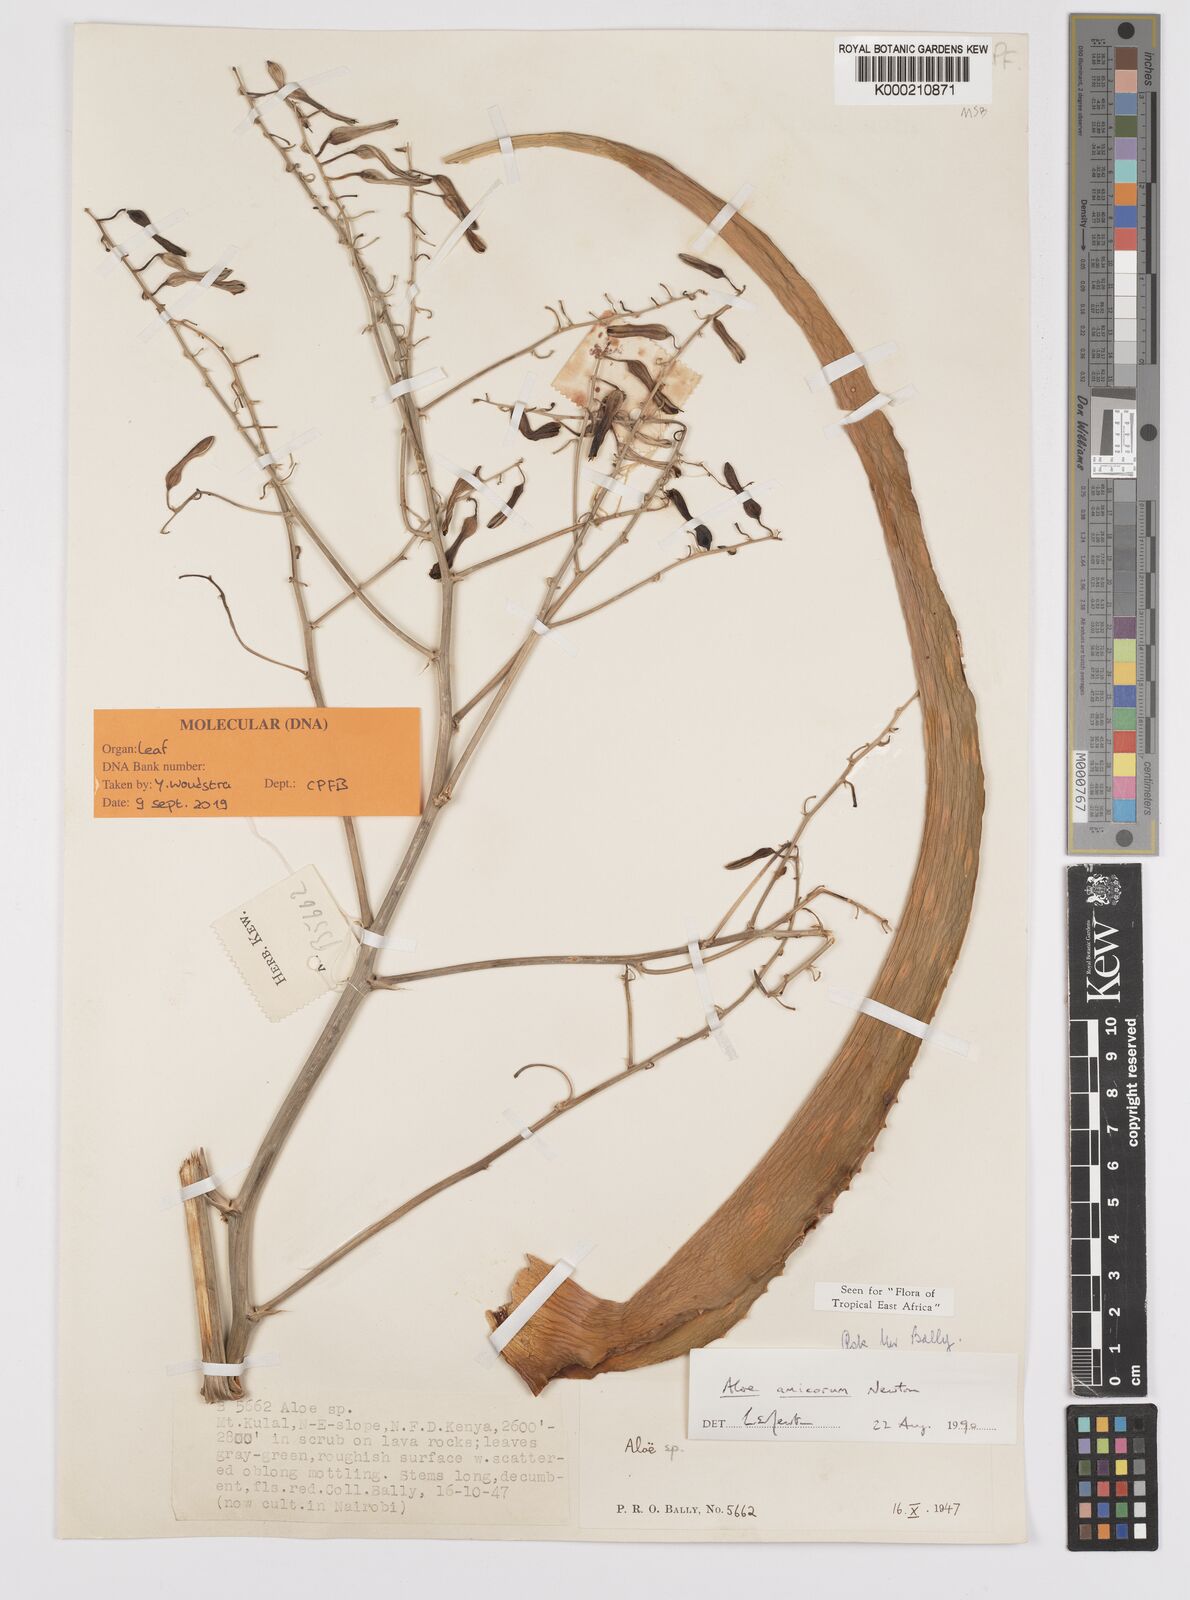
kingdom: Plantae
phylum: Tracheophyta
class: Liliopsida
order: Asparagales
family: Asphodelaceae
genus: Aloe
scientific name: Aloe amicorum
